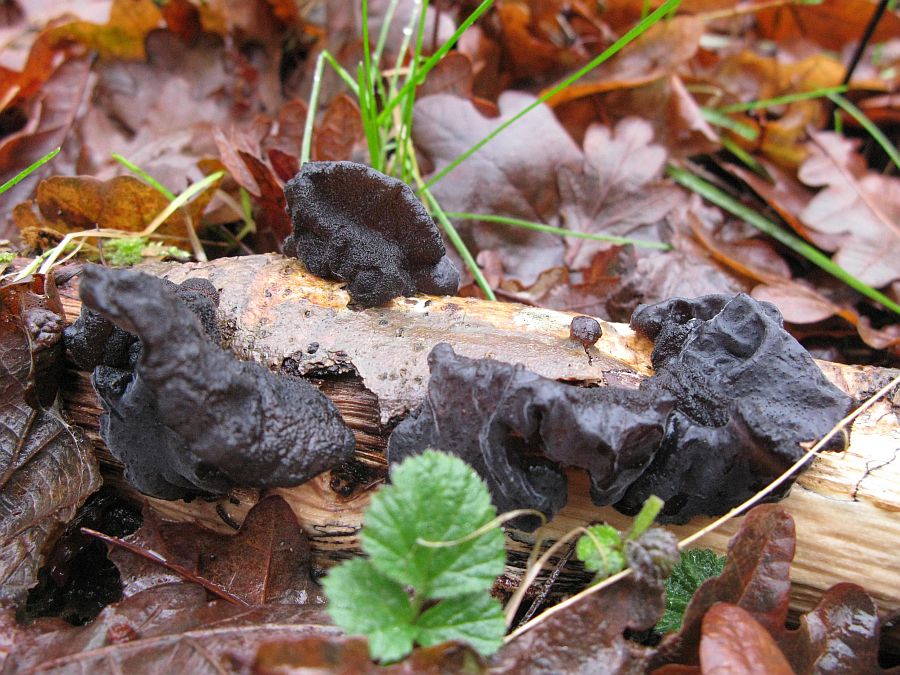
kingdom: Fungi
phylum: Basidiomycota
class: Agaricomycetes
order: Auriculariales
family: Auriculariaceae
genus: Exidia
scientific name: Exidia glandulosa
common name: ege-bævretop
